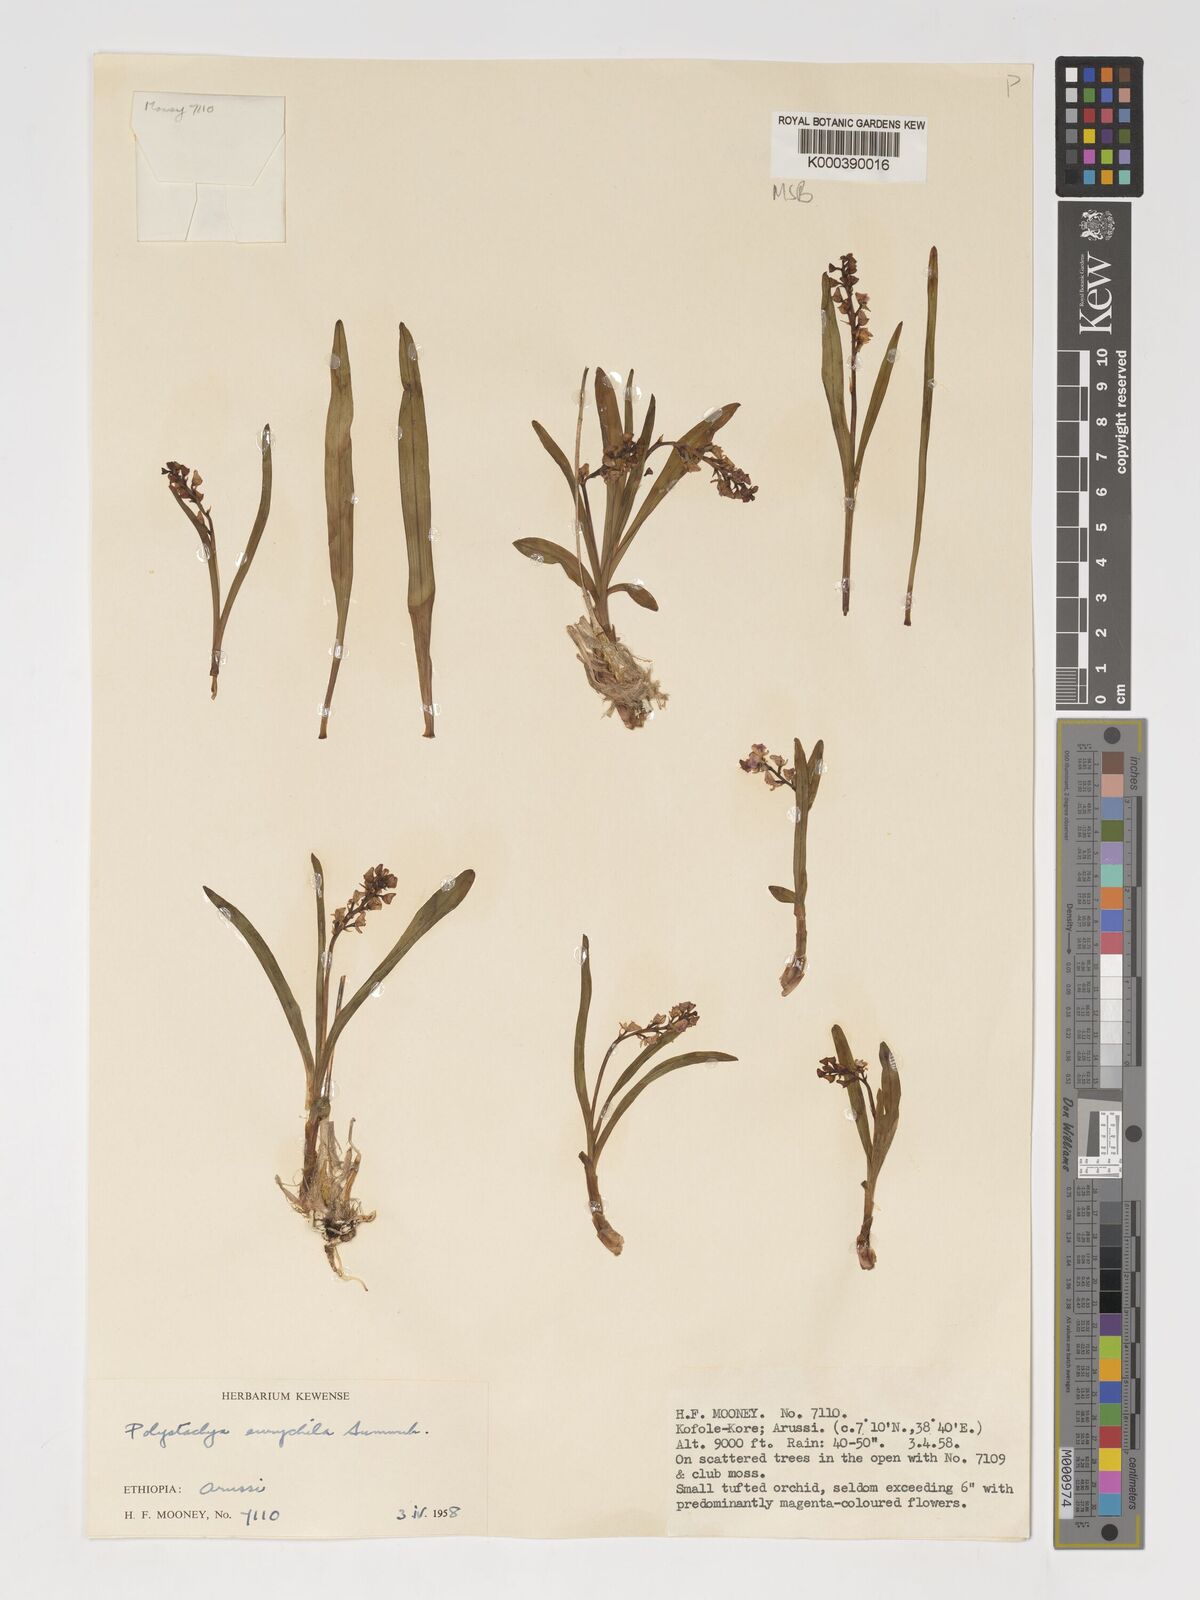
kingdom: Plantae
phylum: Tracheophyta
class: Liliopsida
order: Asparagales
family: Orchidaceae
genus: Polystachya
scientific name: Polystachya eurychila
